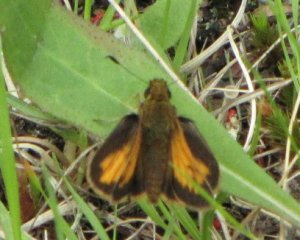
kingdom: Animalia
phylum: Arthropoda
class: Insecta
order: Lepidoptera
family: Hesperiidae
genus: Lon
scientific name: Lon hobomok
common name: Hobomok Skipper
